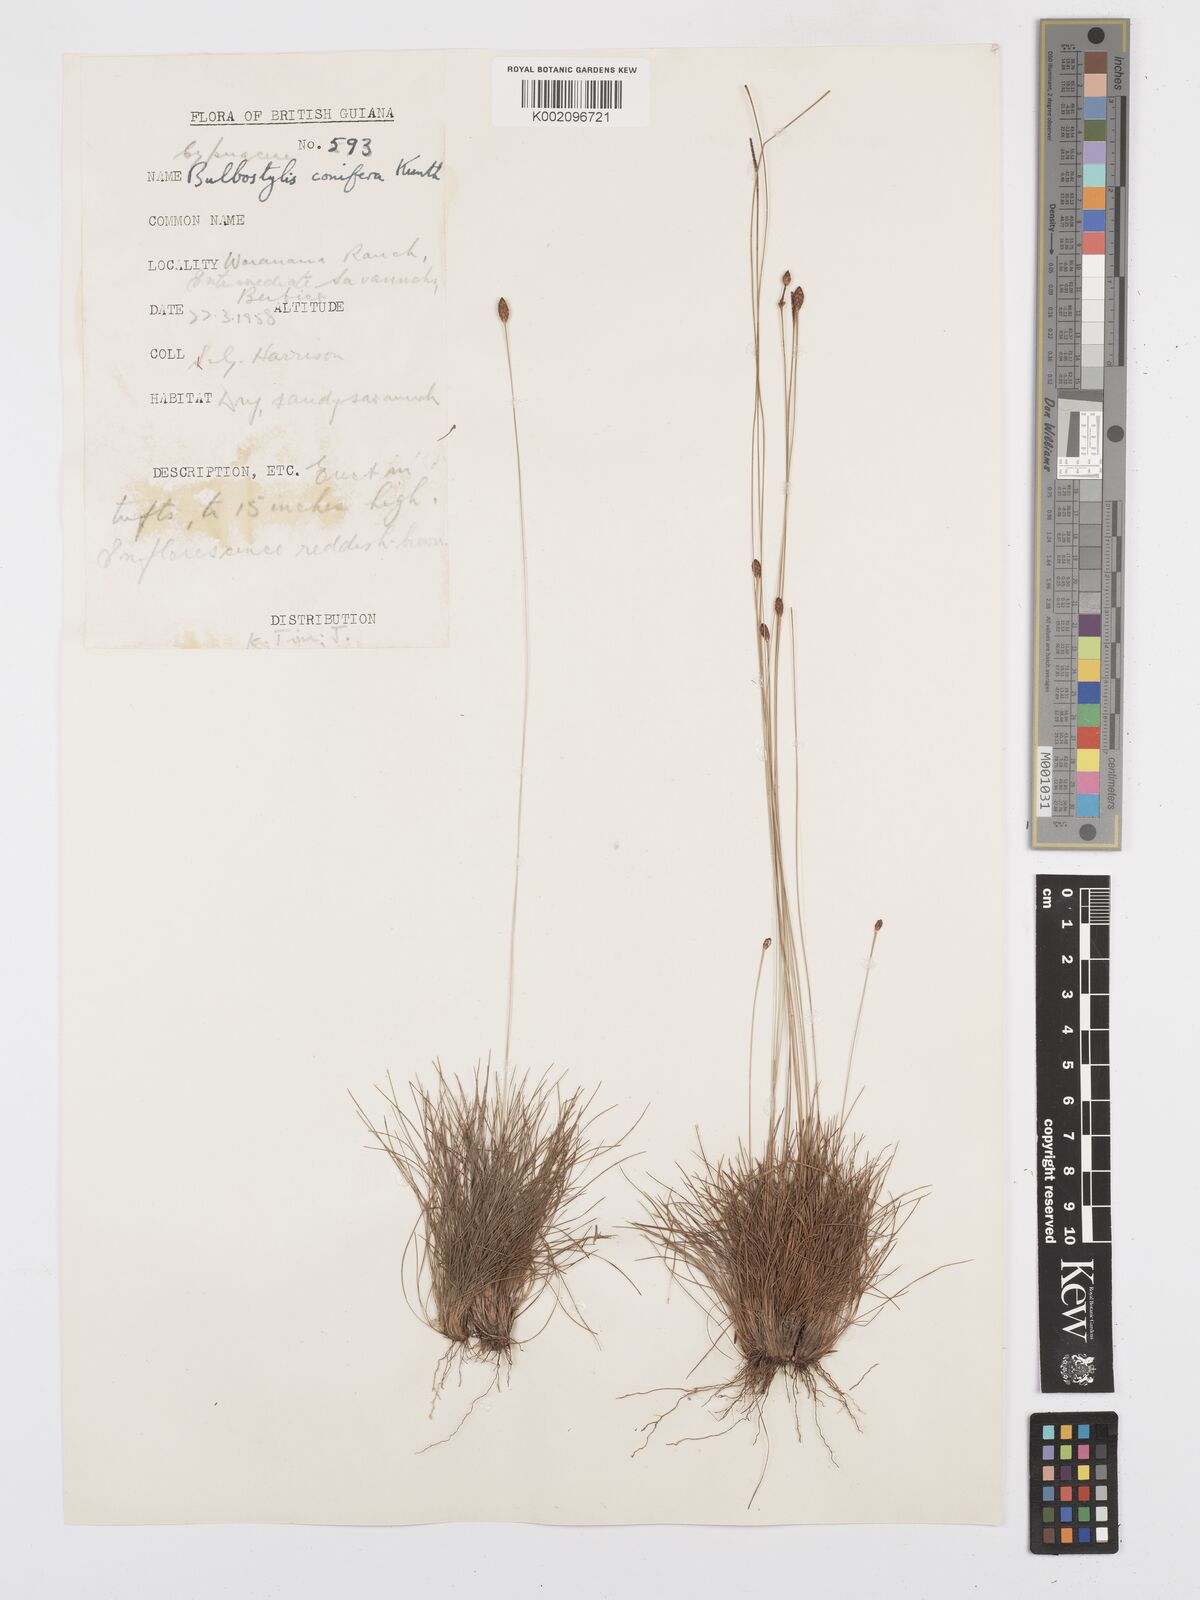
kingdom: Plantae
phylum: Tracheophyta
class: Liliopsida
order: Poales
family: Cyperaceae
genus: Bulbostylis
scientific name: Bulbostylis conifera
